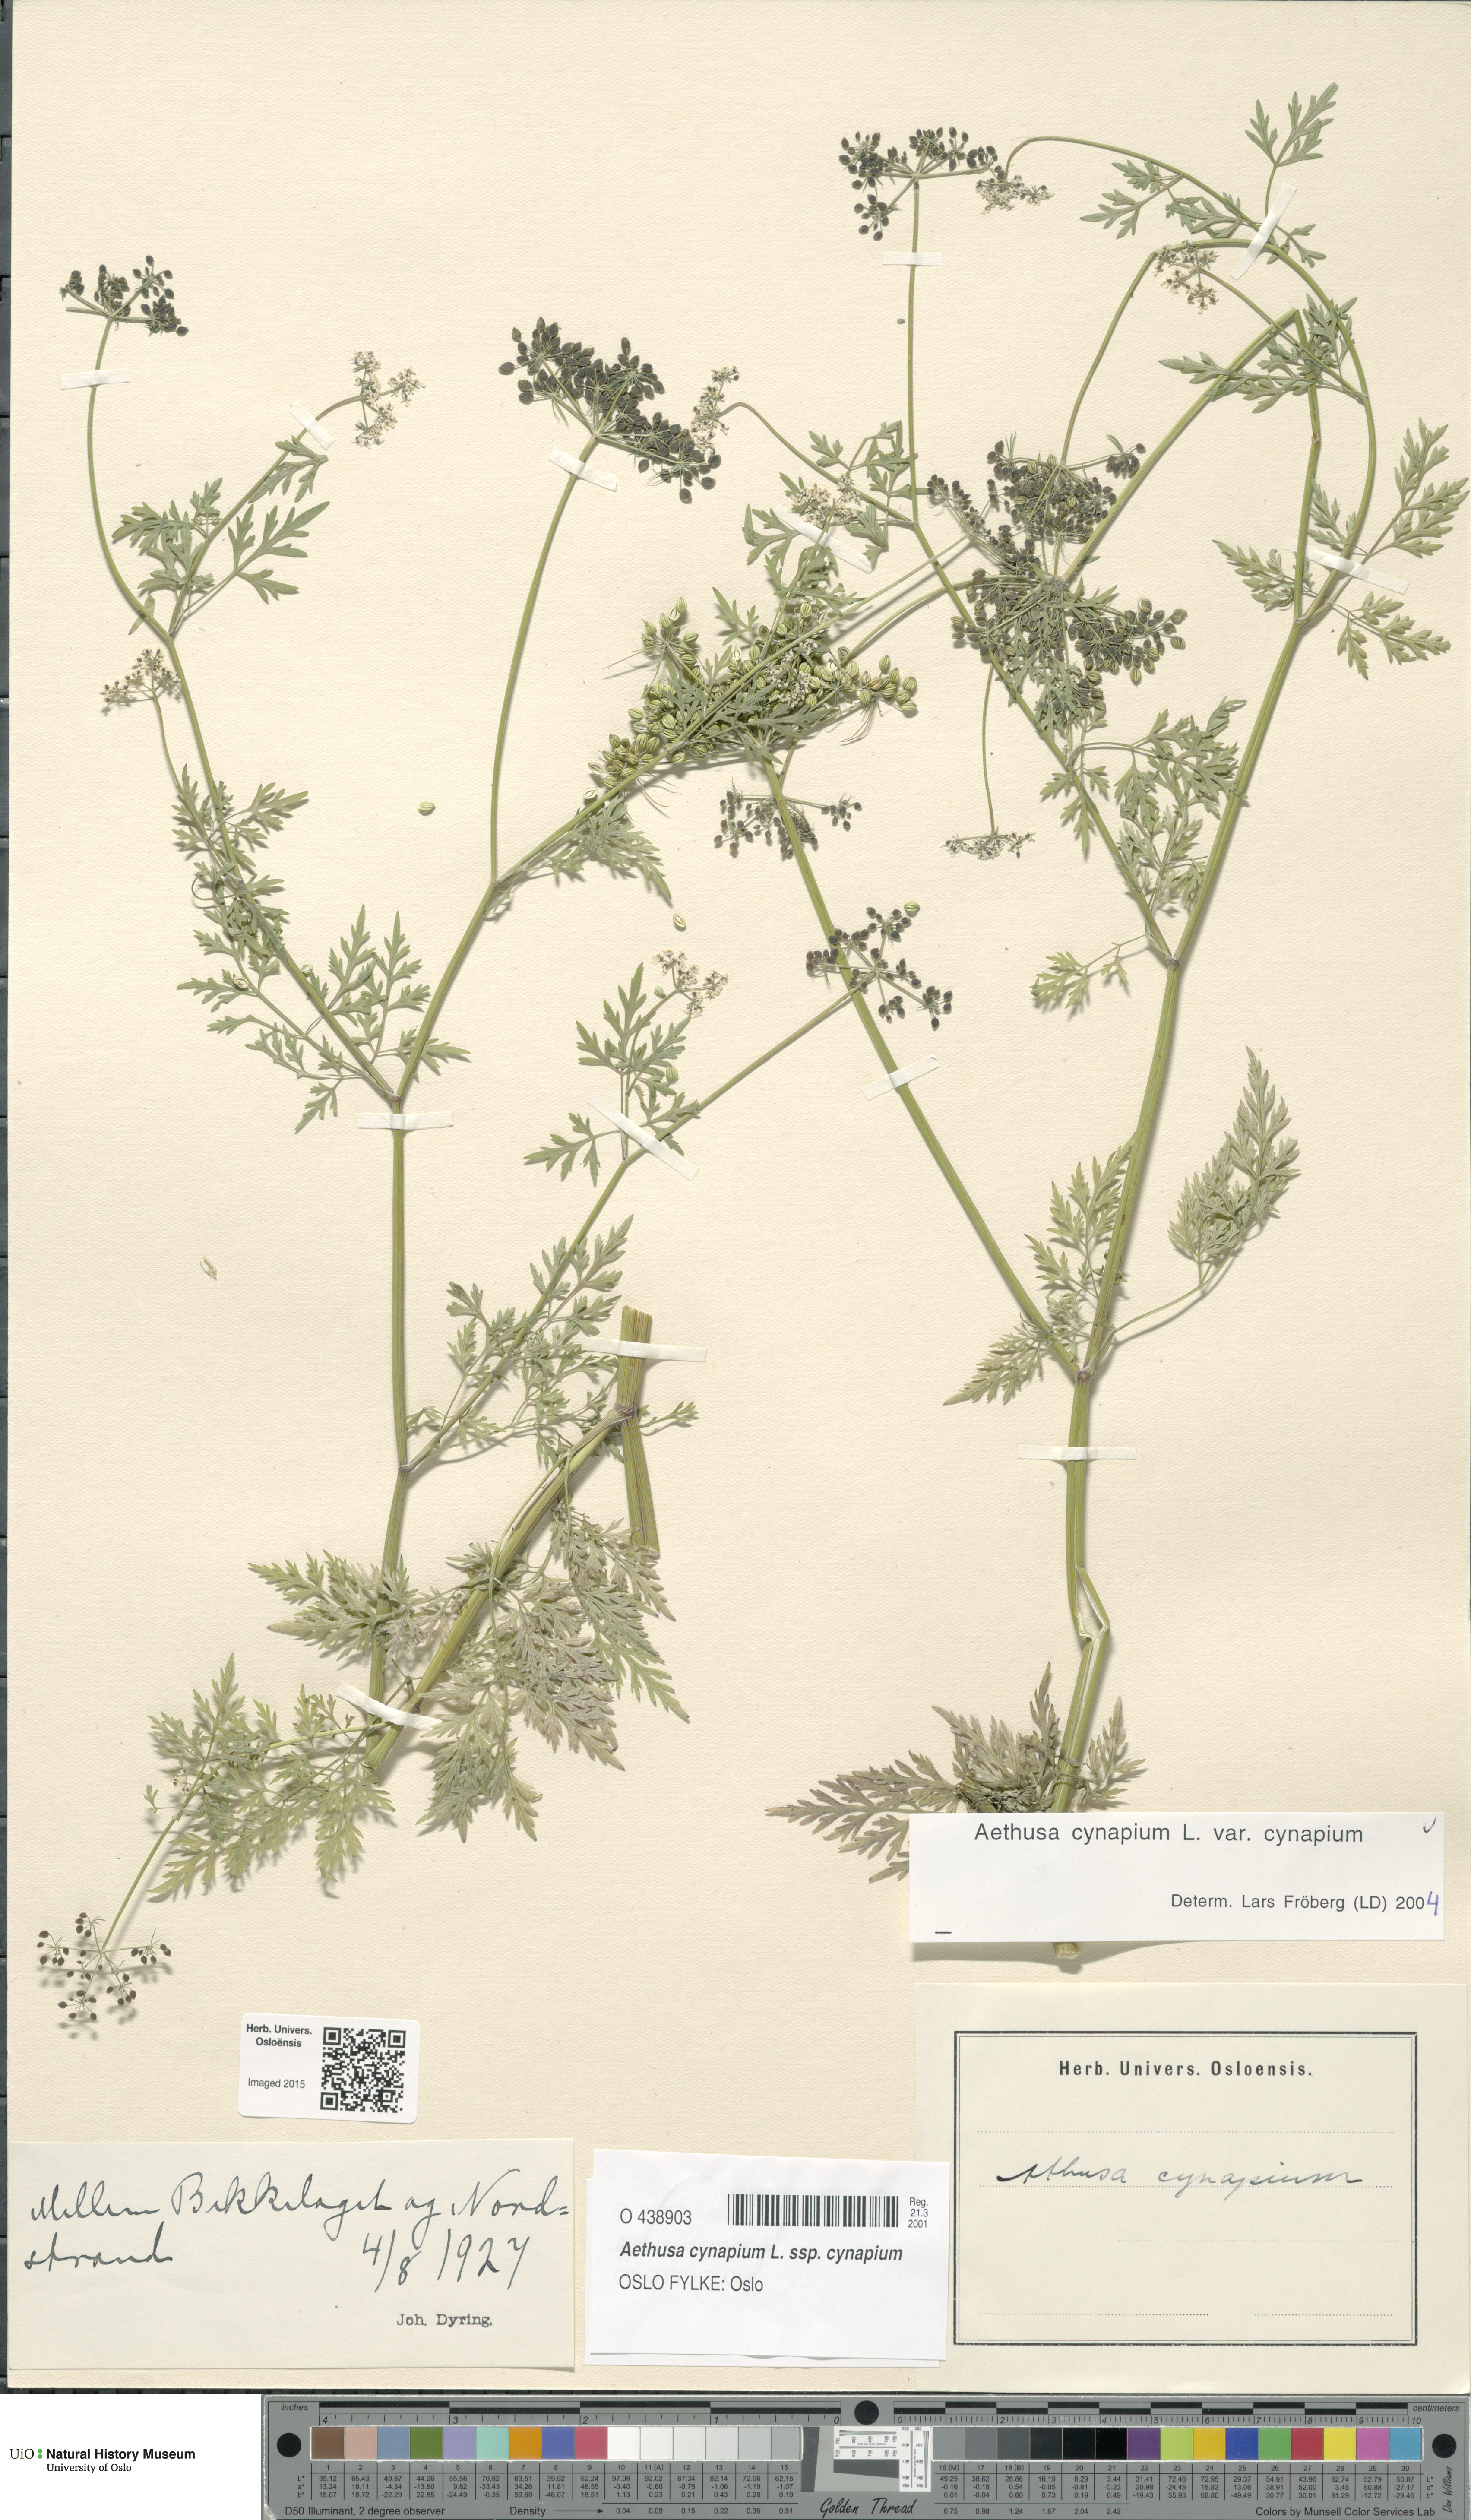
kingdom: Plantae
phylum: Tracheophyta
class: Magnoliopsida
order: Apiales
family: Apiaceae
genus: Aethusa
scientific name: Aethusa cynapium
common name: Fool's parsley
